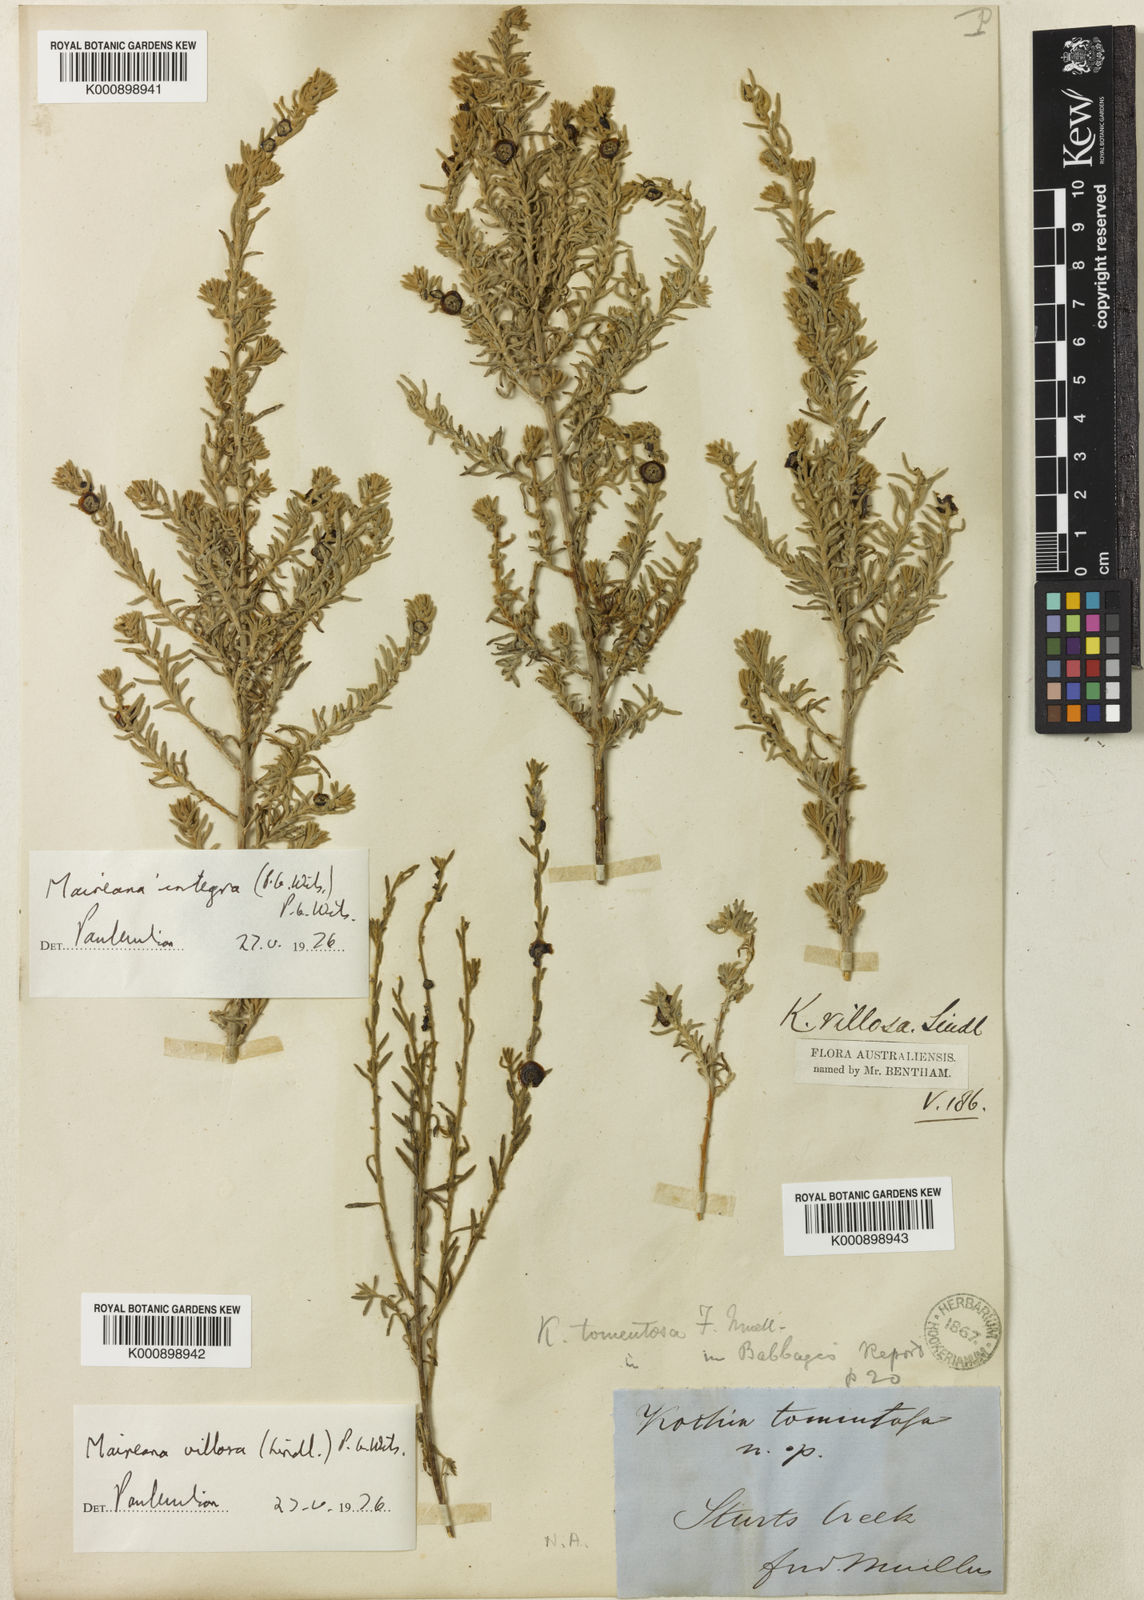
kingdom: Plantae
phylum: Tracheophyta
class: Magnoliopsida
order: Caryophyllales
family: Amaranthaceae
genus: Maireana
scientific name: Maireana villosa
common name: Silky bluebush
